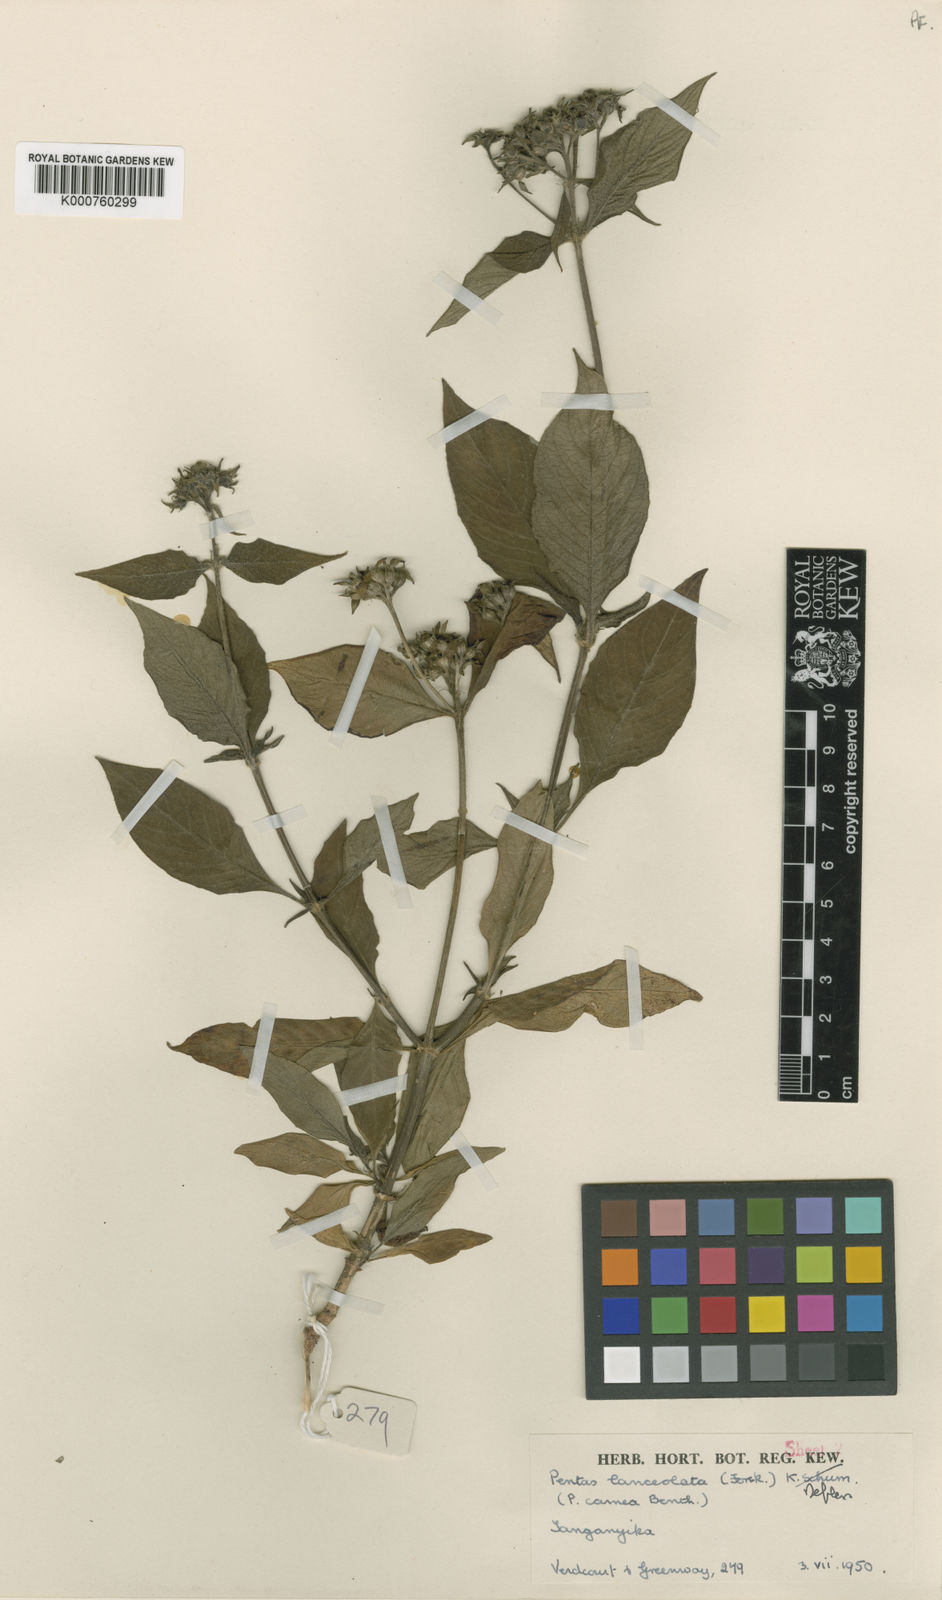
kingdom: Plantae
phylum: Tracheophyta
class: Magnoliopsida
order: Gentianales
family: Rubiaceae
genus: Pentas
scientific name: Pentas lanceolata
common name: Egyptian starcluster
